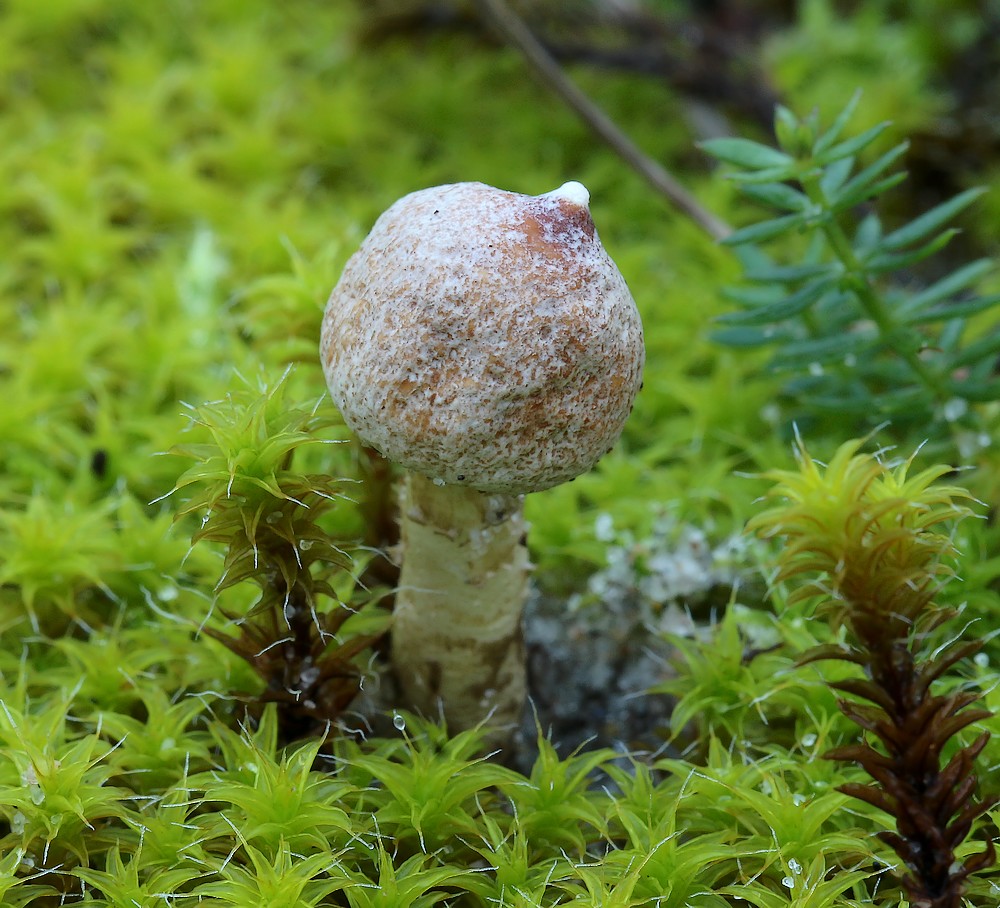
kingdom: Fungi
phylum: Basidiomycota
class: Agaricomycetes
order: Agaricales
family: Agaricaceae
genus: Tulostoma
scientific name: Tulostoma brumale
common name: vinter-stilkbovist
